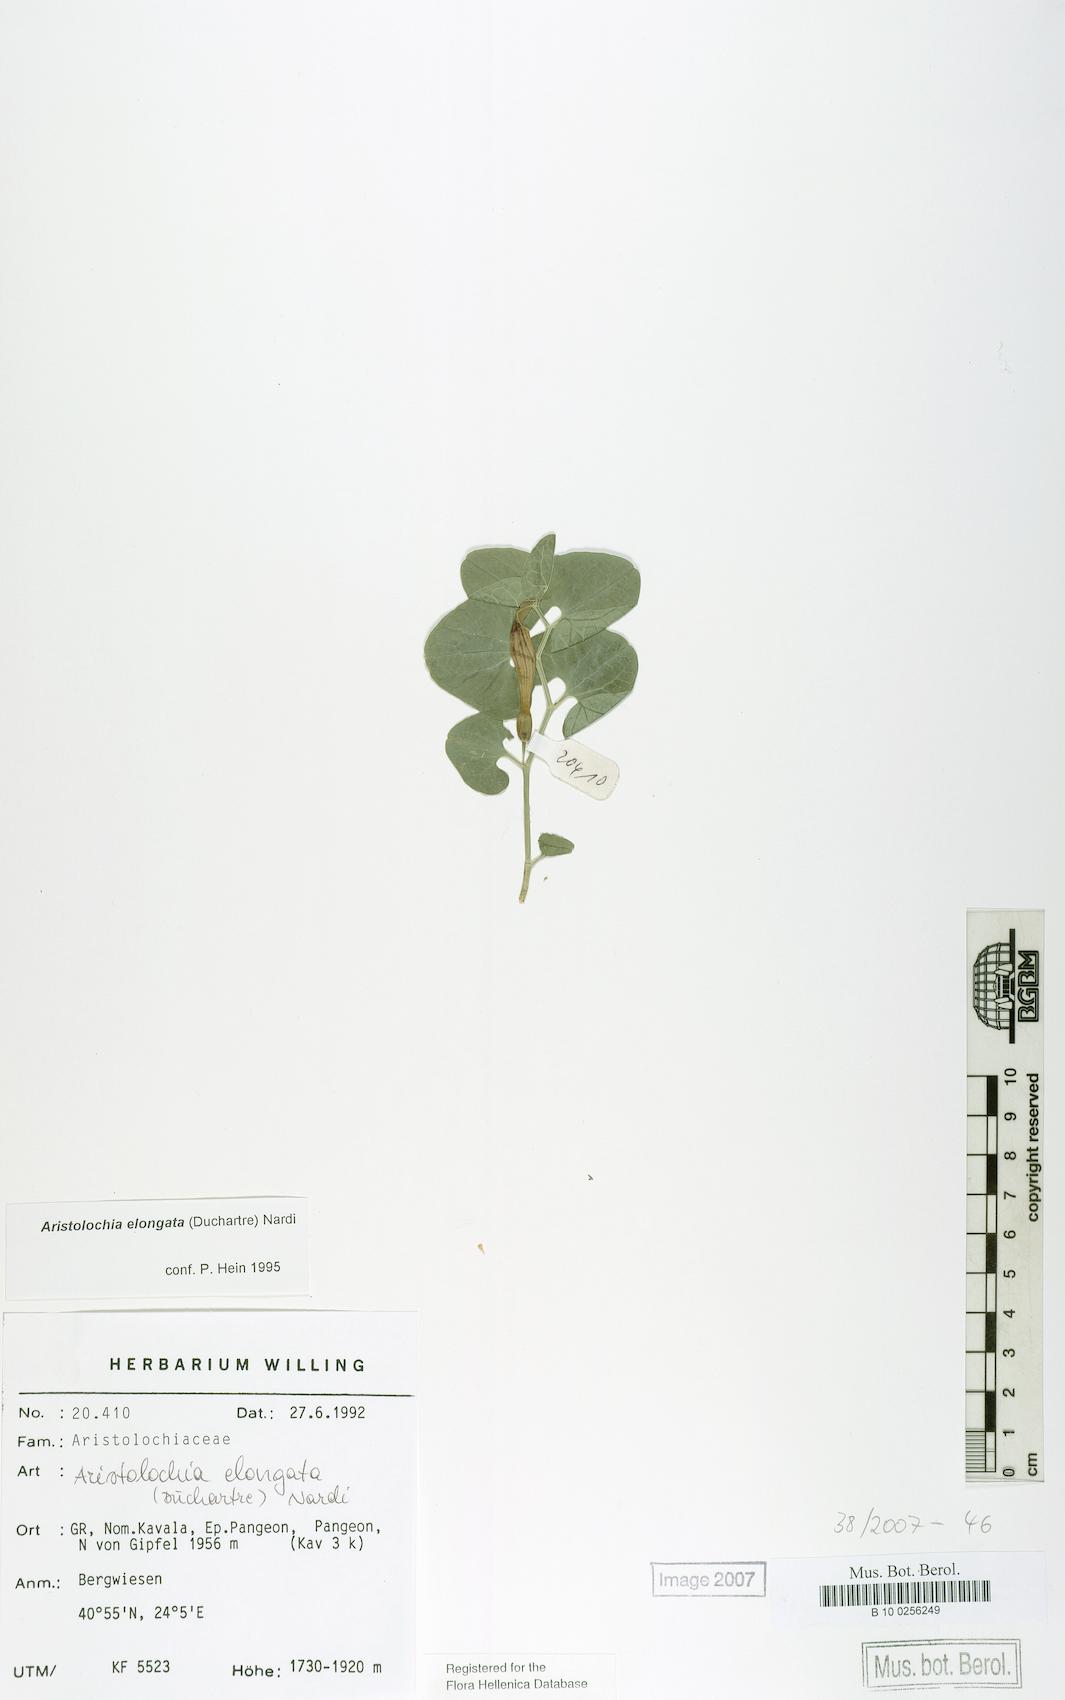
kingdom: Plantae
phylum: Tracheophyta
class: Magnoliopsida
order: Piperales
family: Aristolochiaceae
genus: Aristolochia
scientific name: Aristolochia nardiana
